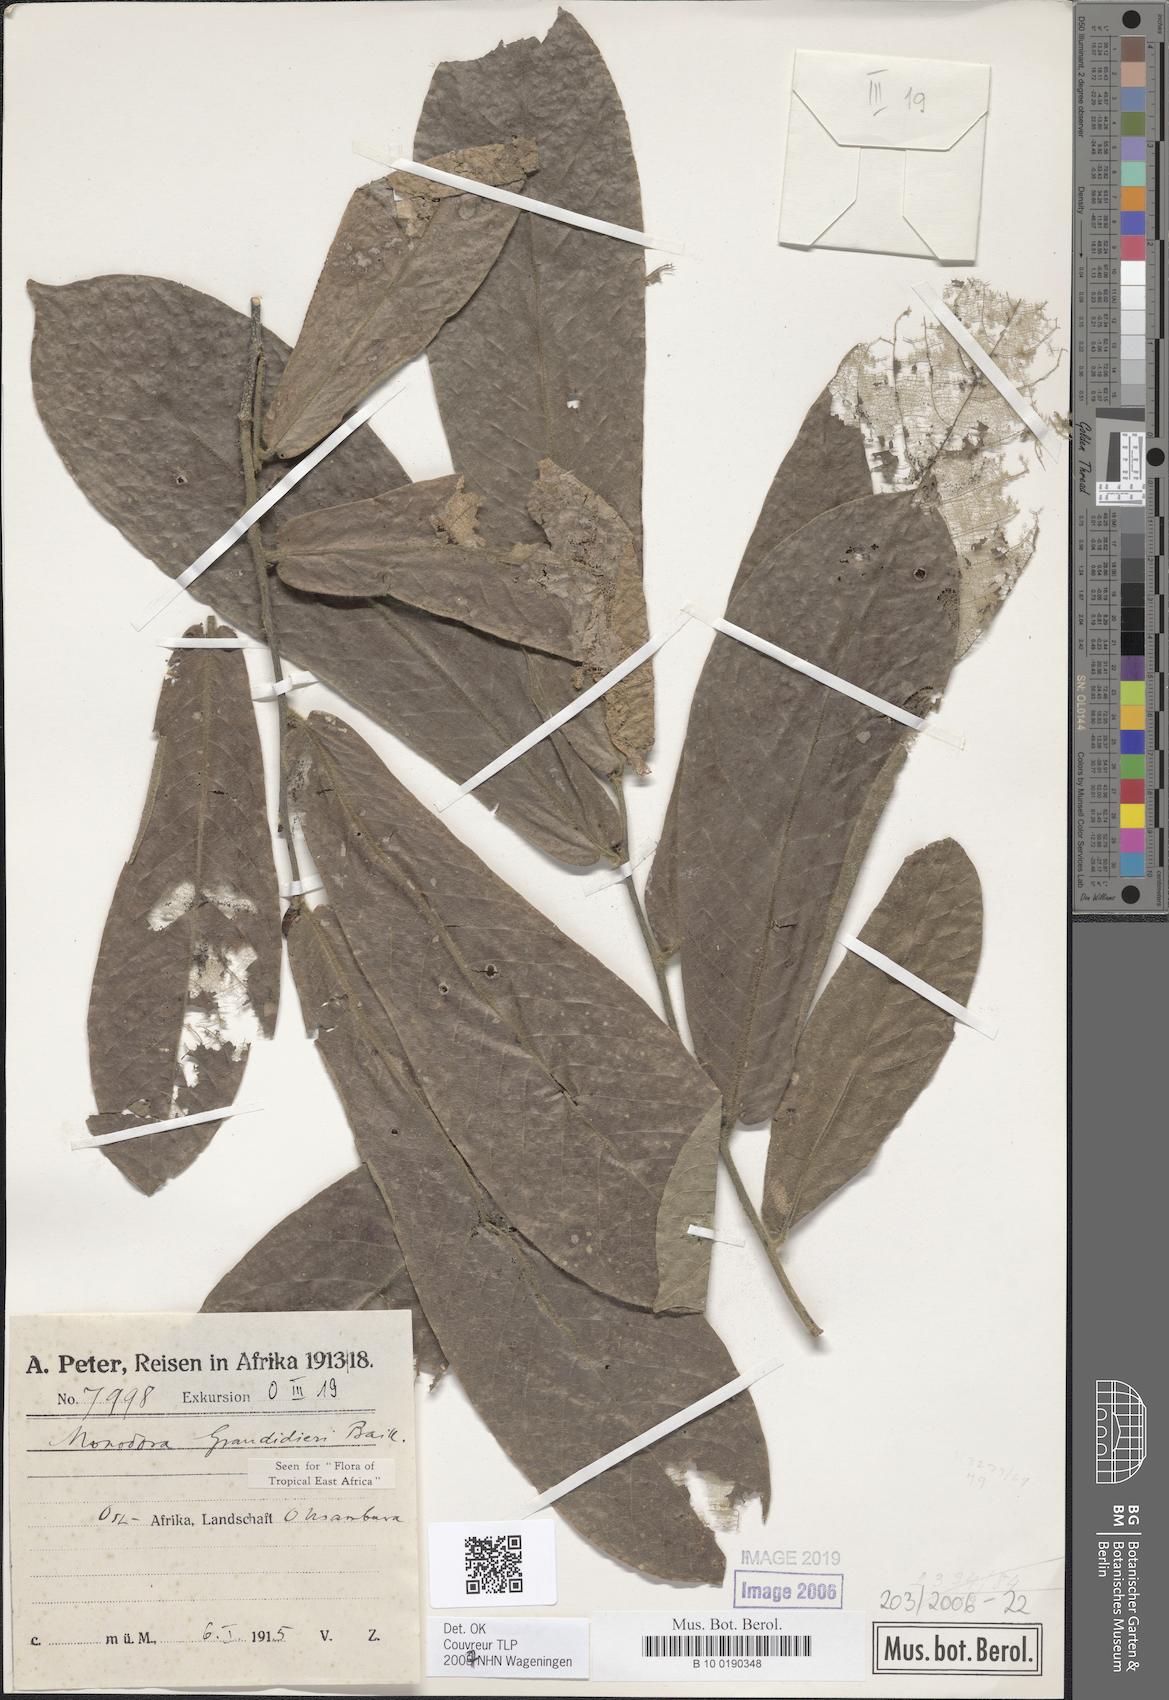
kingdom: Plantae
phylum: Tracheophyta
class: Magnoliopsida
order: Magnoliales
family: Annonaceae
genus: Monodora
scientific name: Monodora grandidieri
